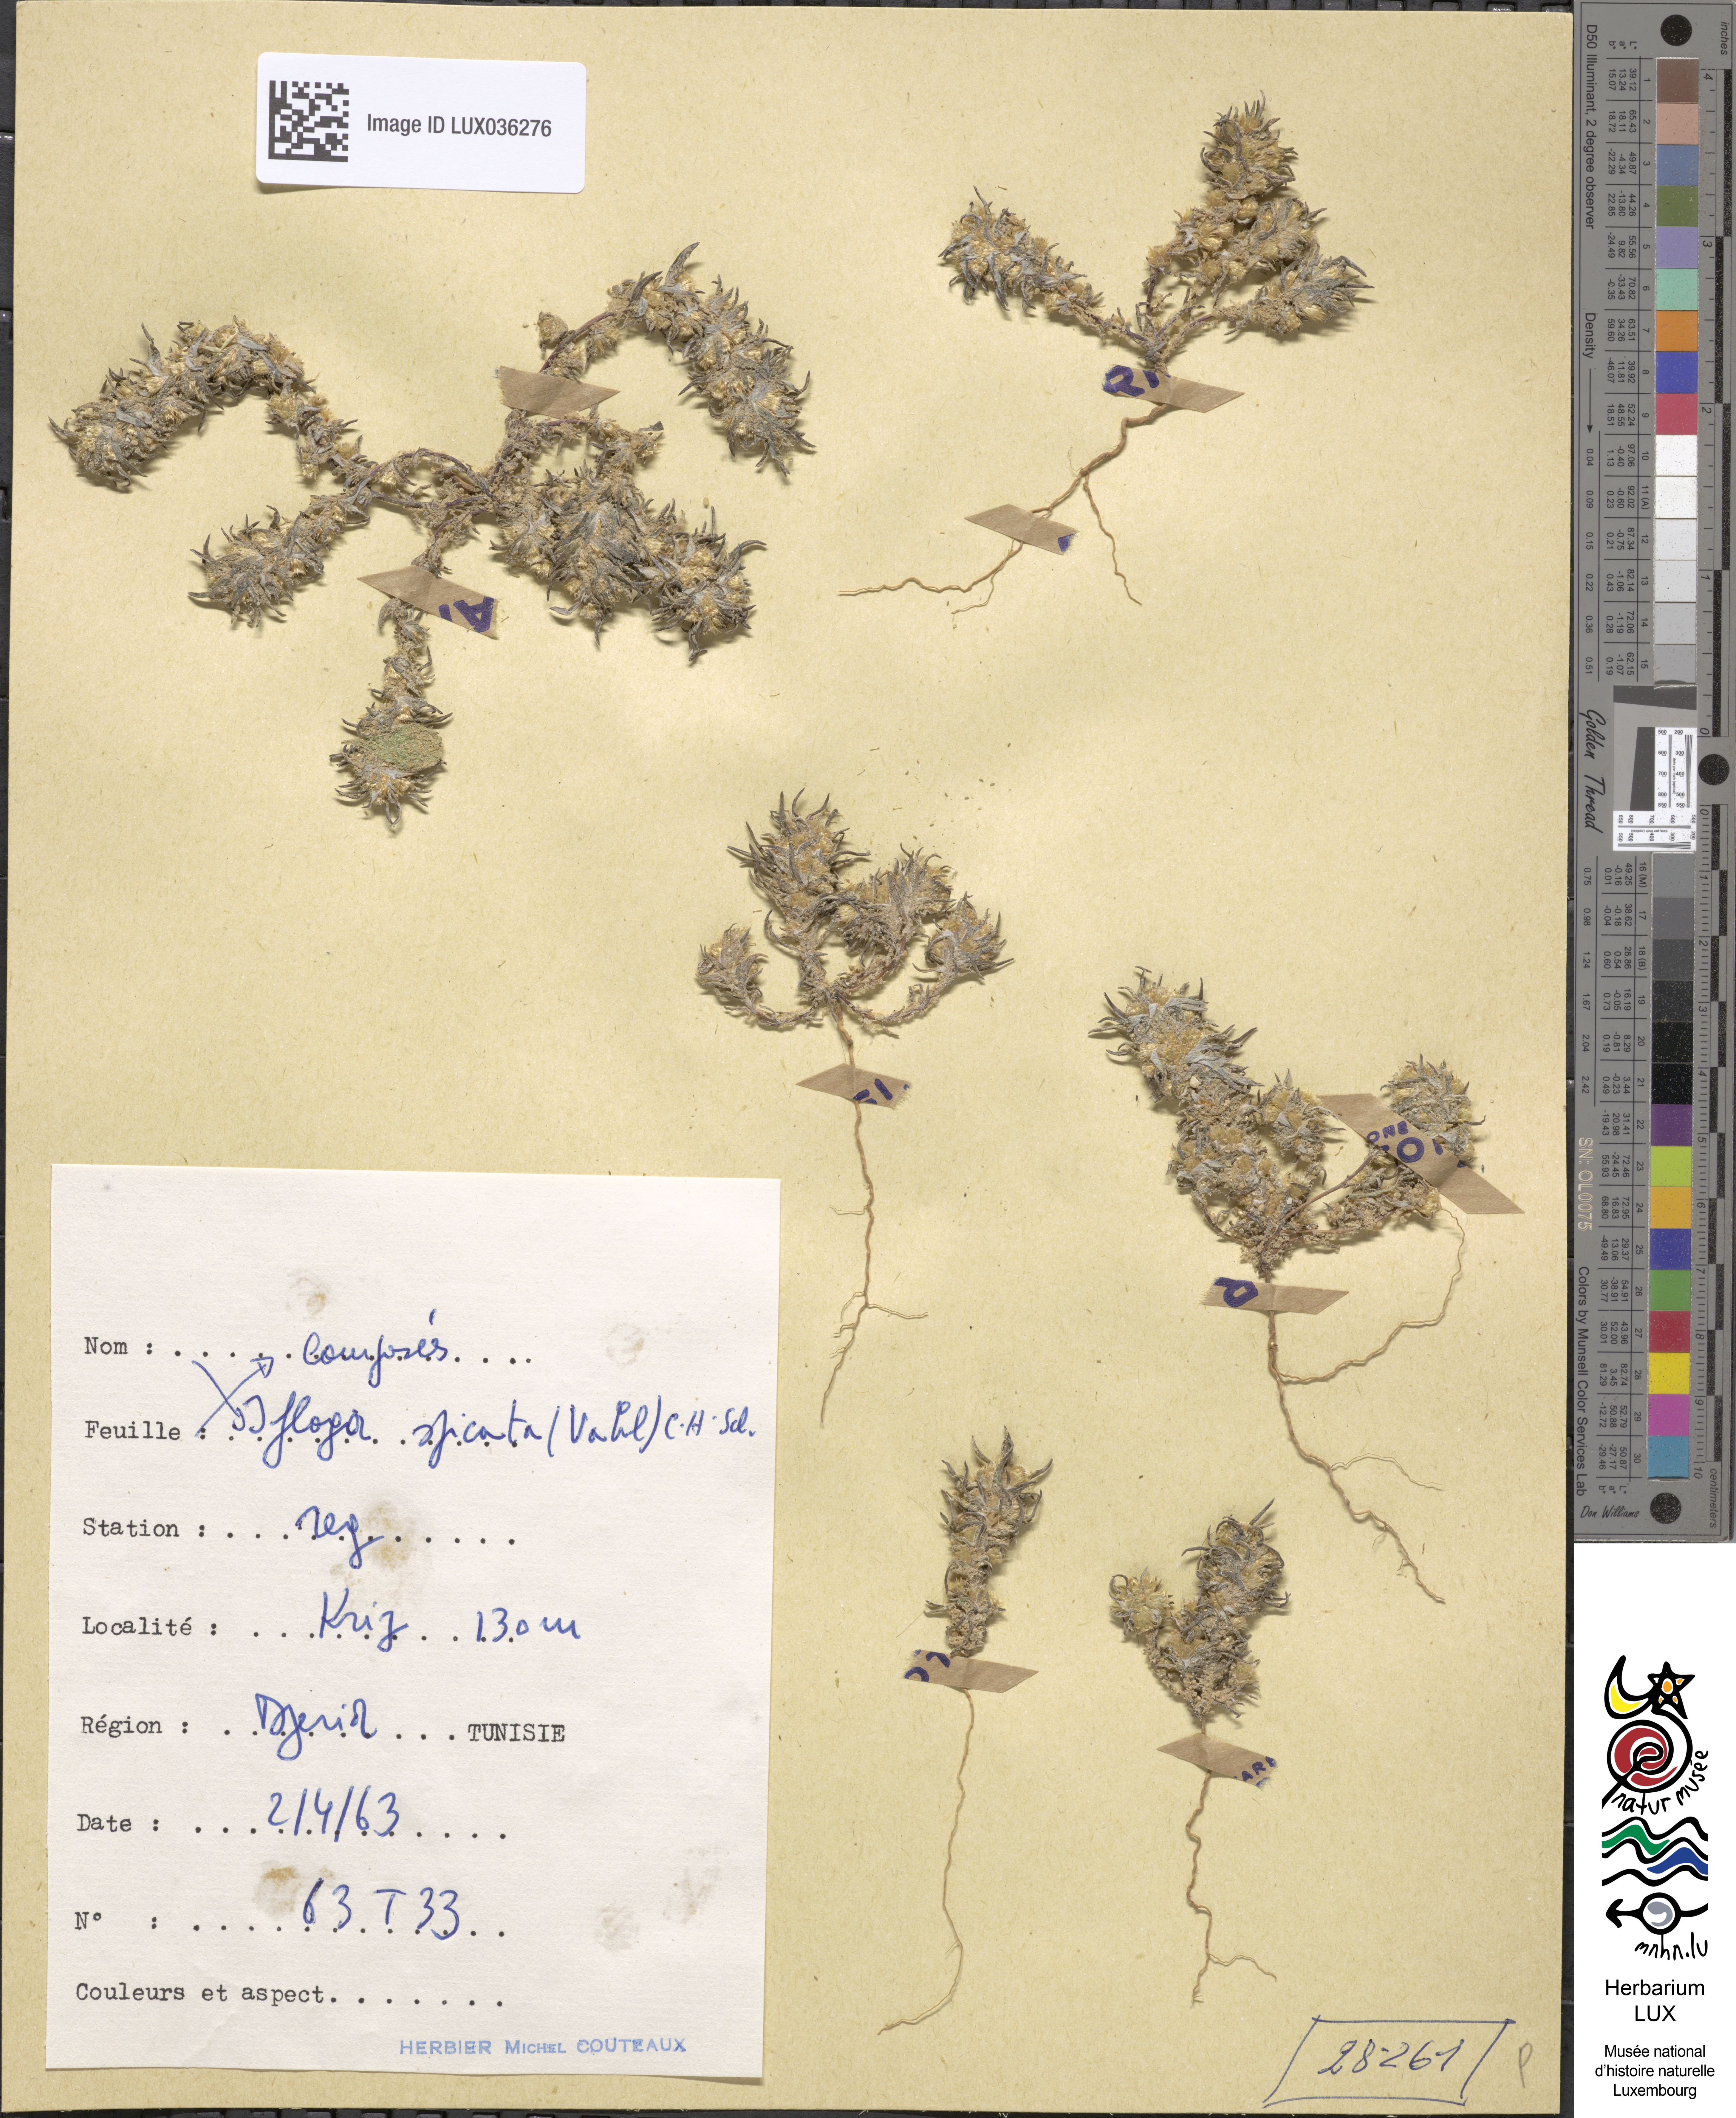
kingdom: Plantae
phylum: Tracheophyta
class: Magnoliopsida
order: Asterales
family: Asteraceae
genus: Ifloga
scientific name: Ifloga spicata
